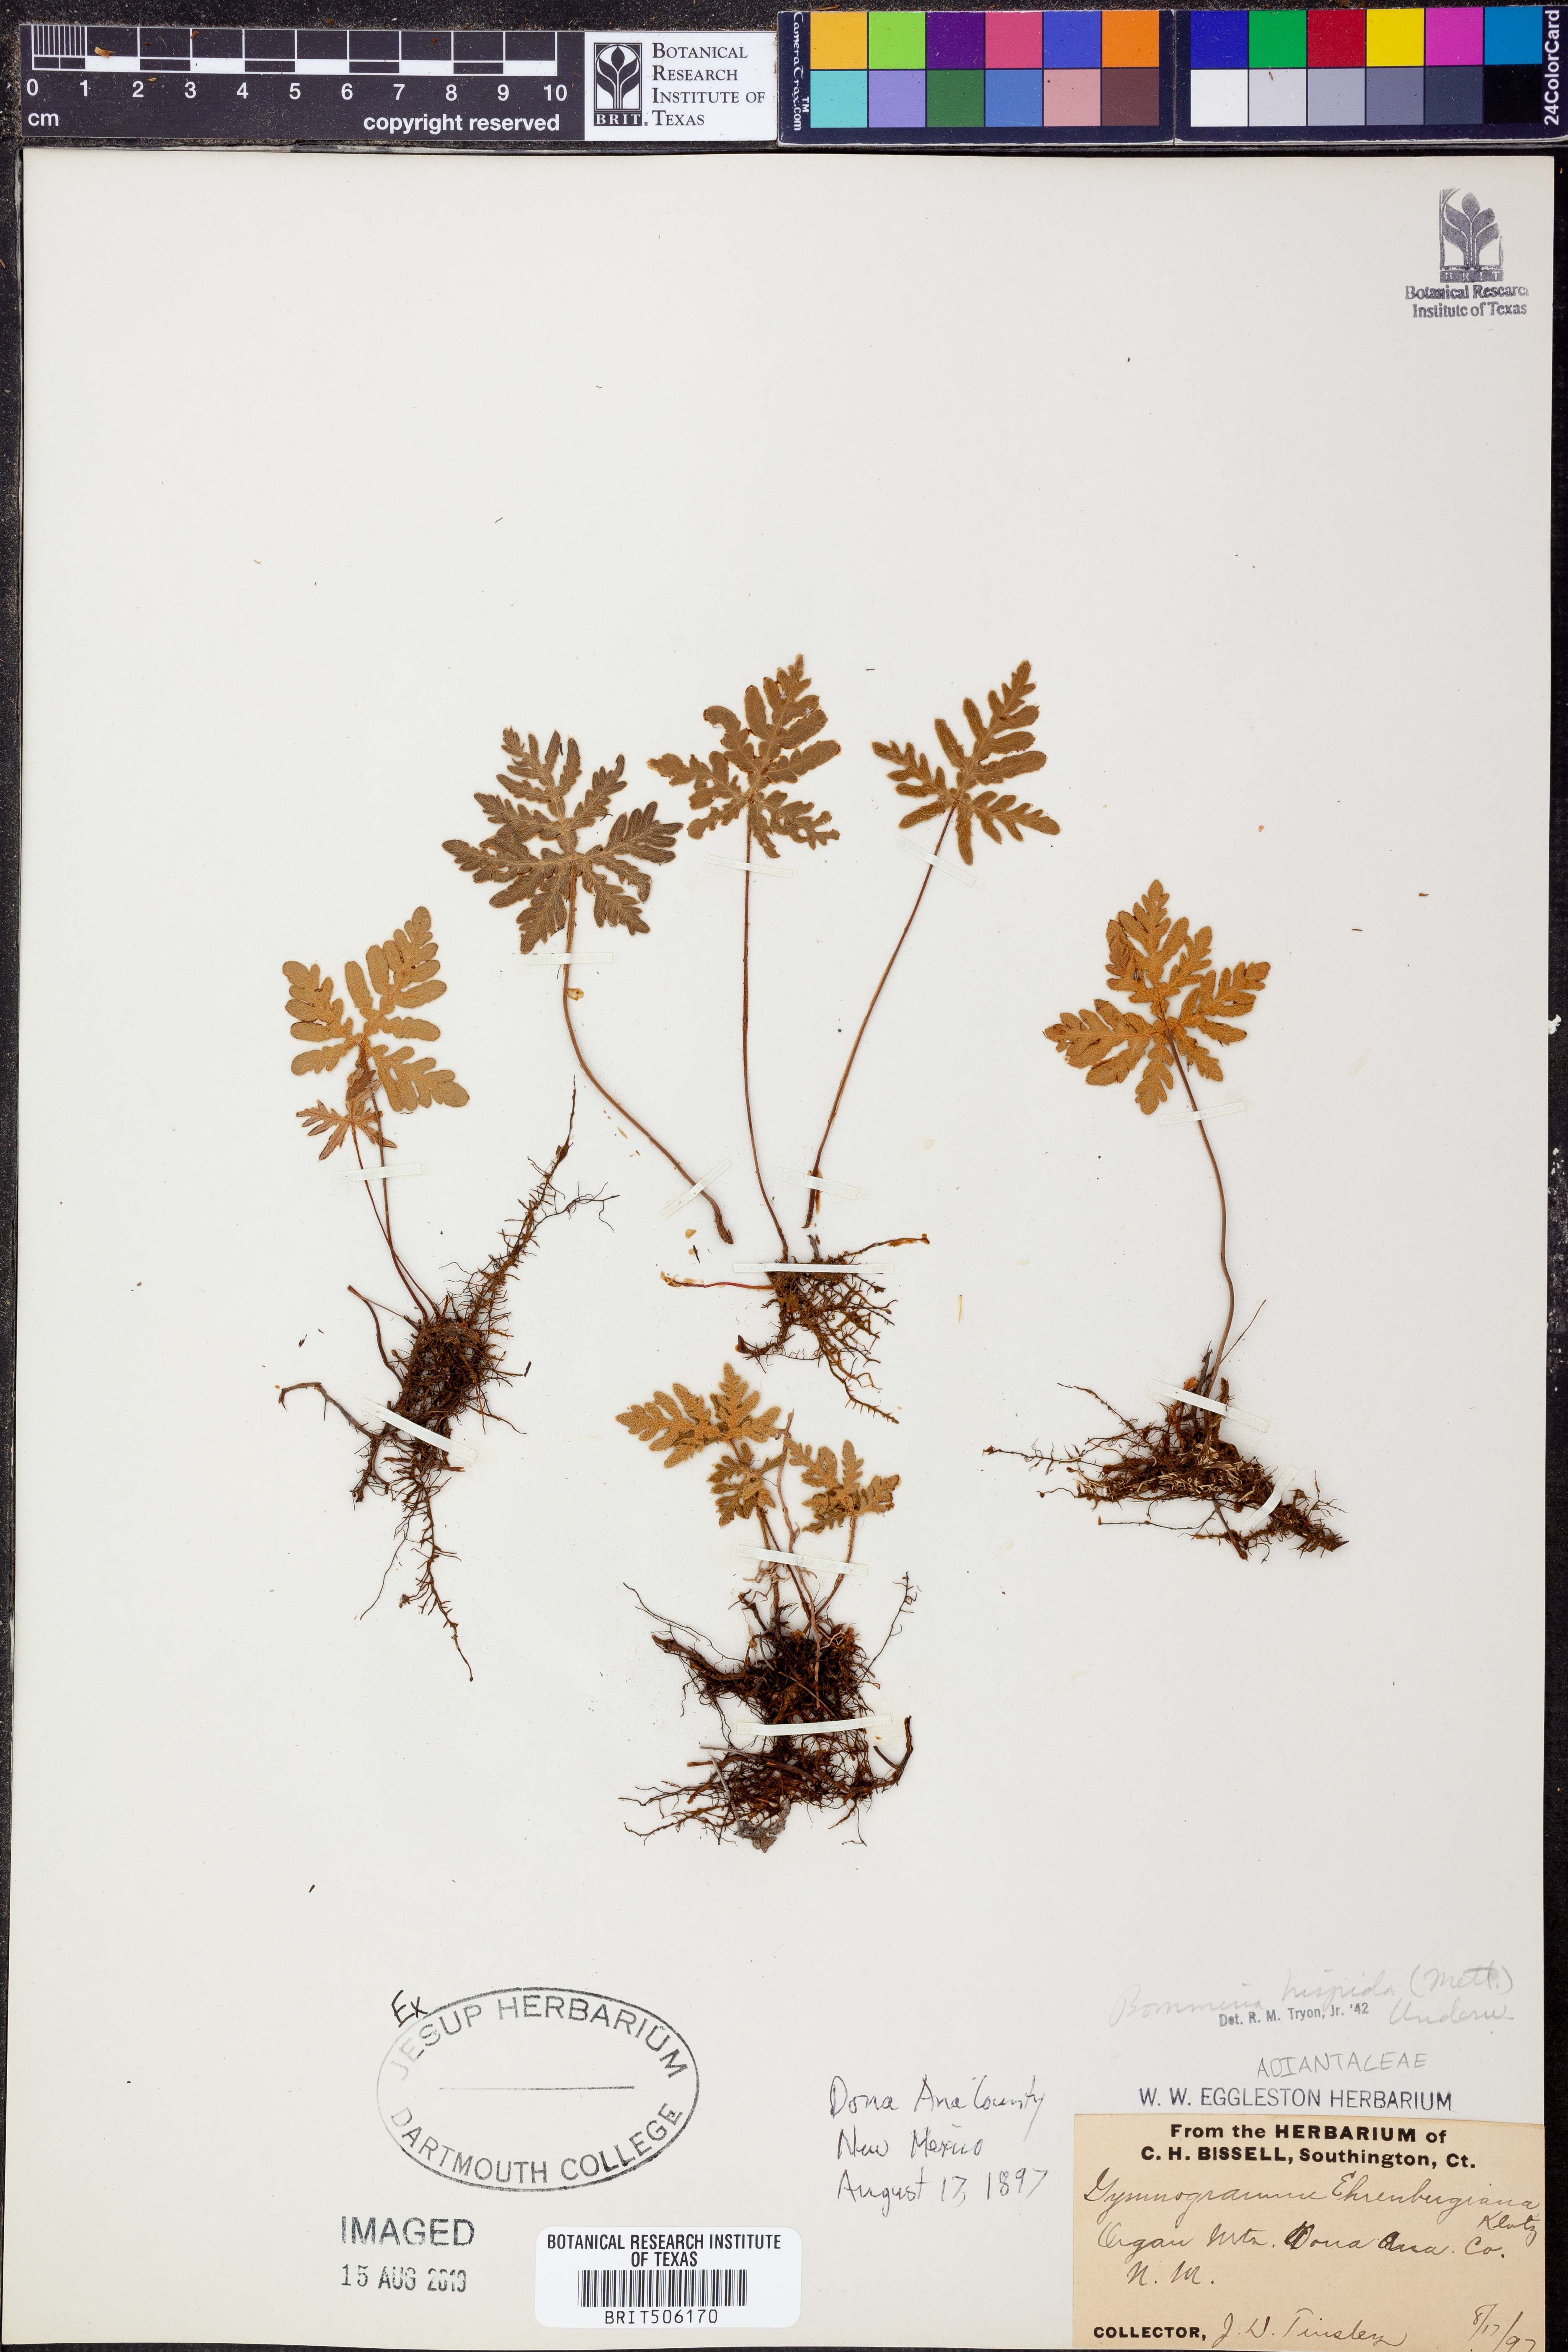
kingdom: Plantae
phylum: Tracheophyta
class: Polypodiopsida
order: Polypodiales
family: Pteridaceae
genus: Bommeria
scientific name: Bommeria hispida
